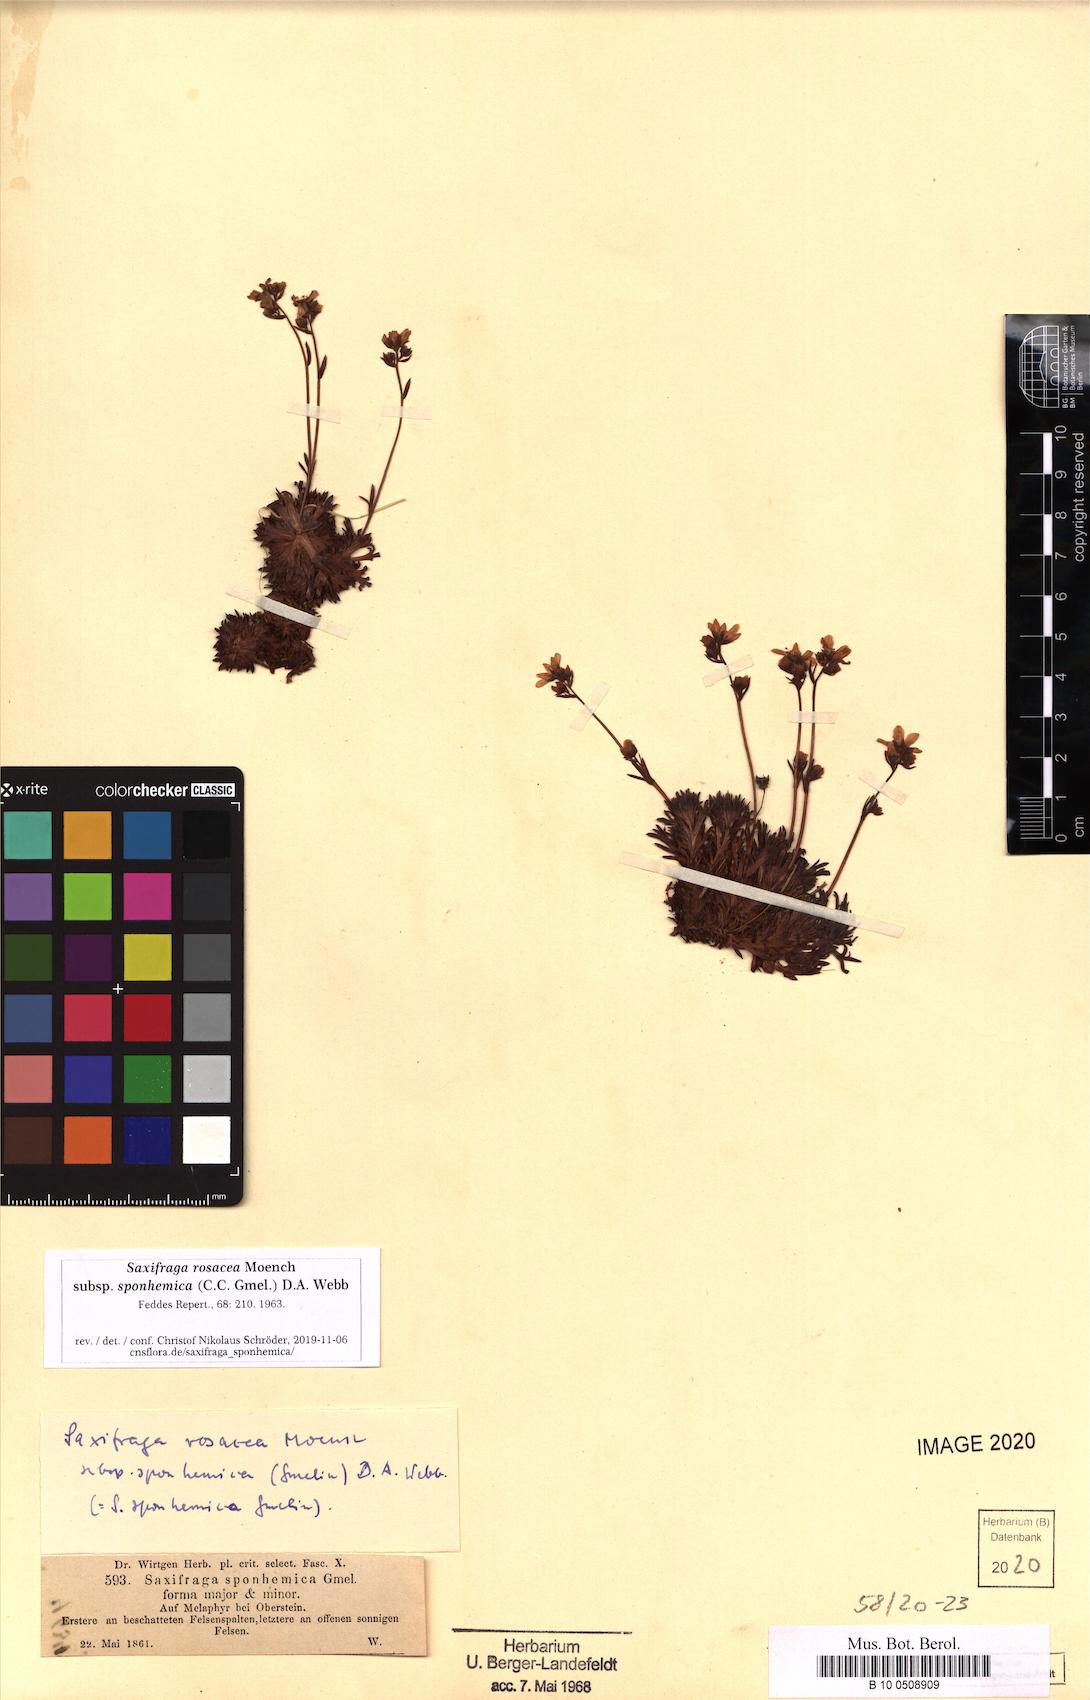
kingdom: Plantae
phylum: Tracheophyta
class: Magnoliopsida
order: Saxifragales
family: Saxifragaceae
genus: Saxifraga
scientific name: Saxifraga rosacea
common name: Irish saxifrage
